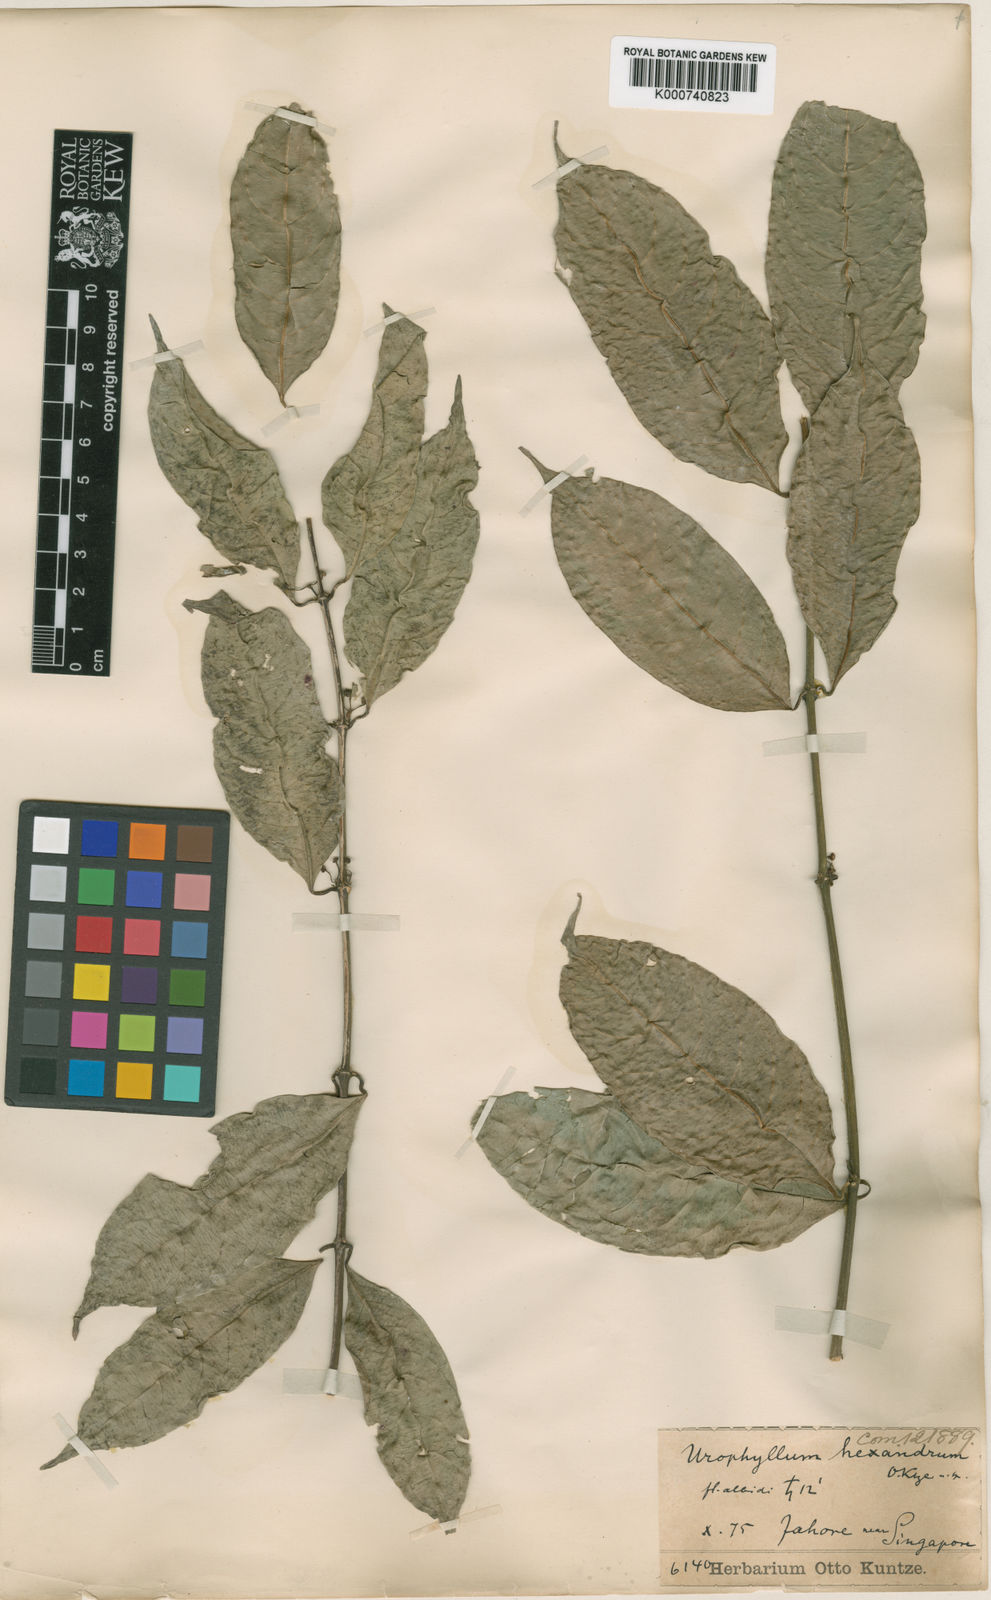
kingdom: Plantae
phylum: Tracheophyta
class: Magnoliopsida
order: Gentianales
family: Rubiaceae
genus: Urophyllum
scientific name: Urophyllum hexandrum
